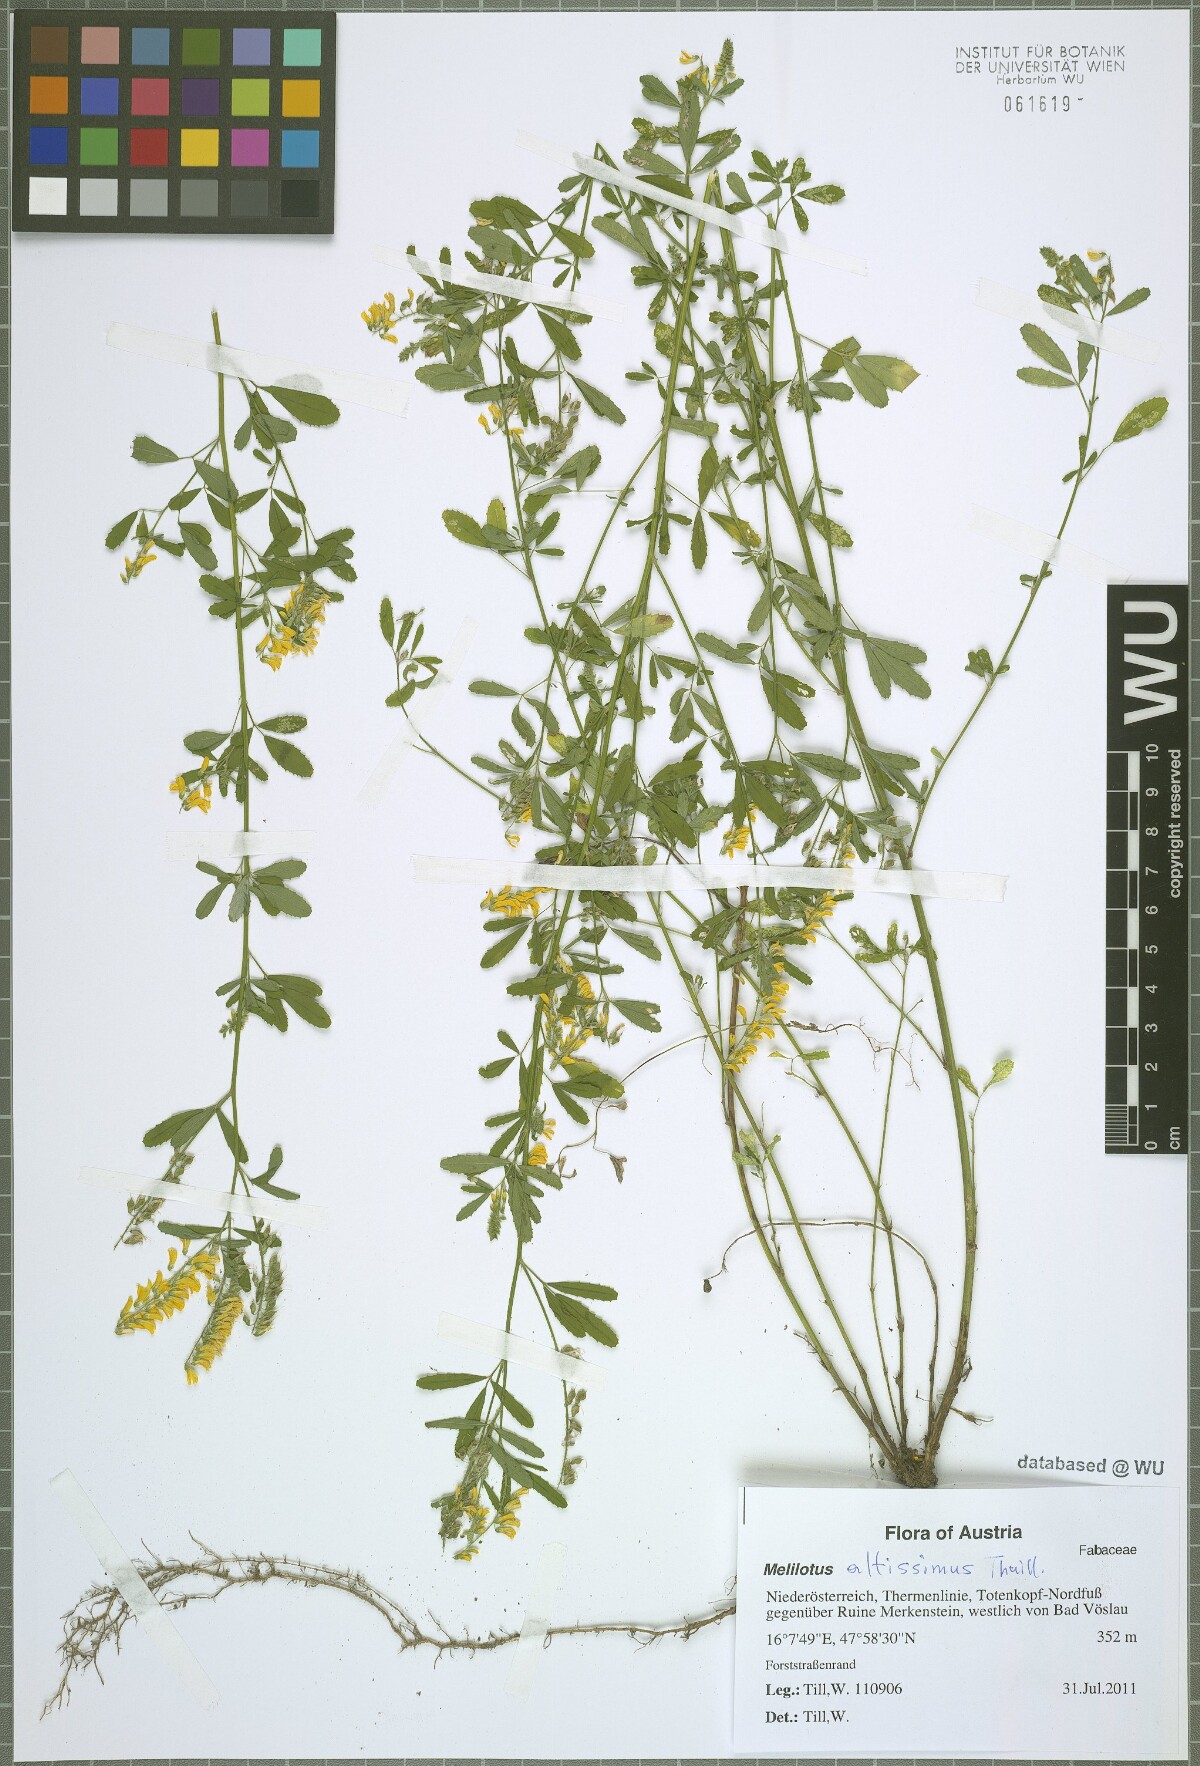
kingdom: Plantae
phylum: Tracheophyta
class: Magnoliopsida
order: Fabales
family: Fabaceae
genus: Melilotus
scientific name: Melilotus altissimus
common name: Tall melilot
